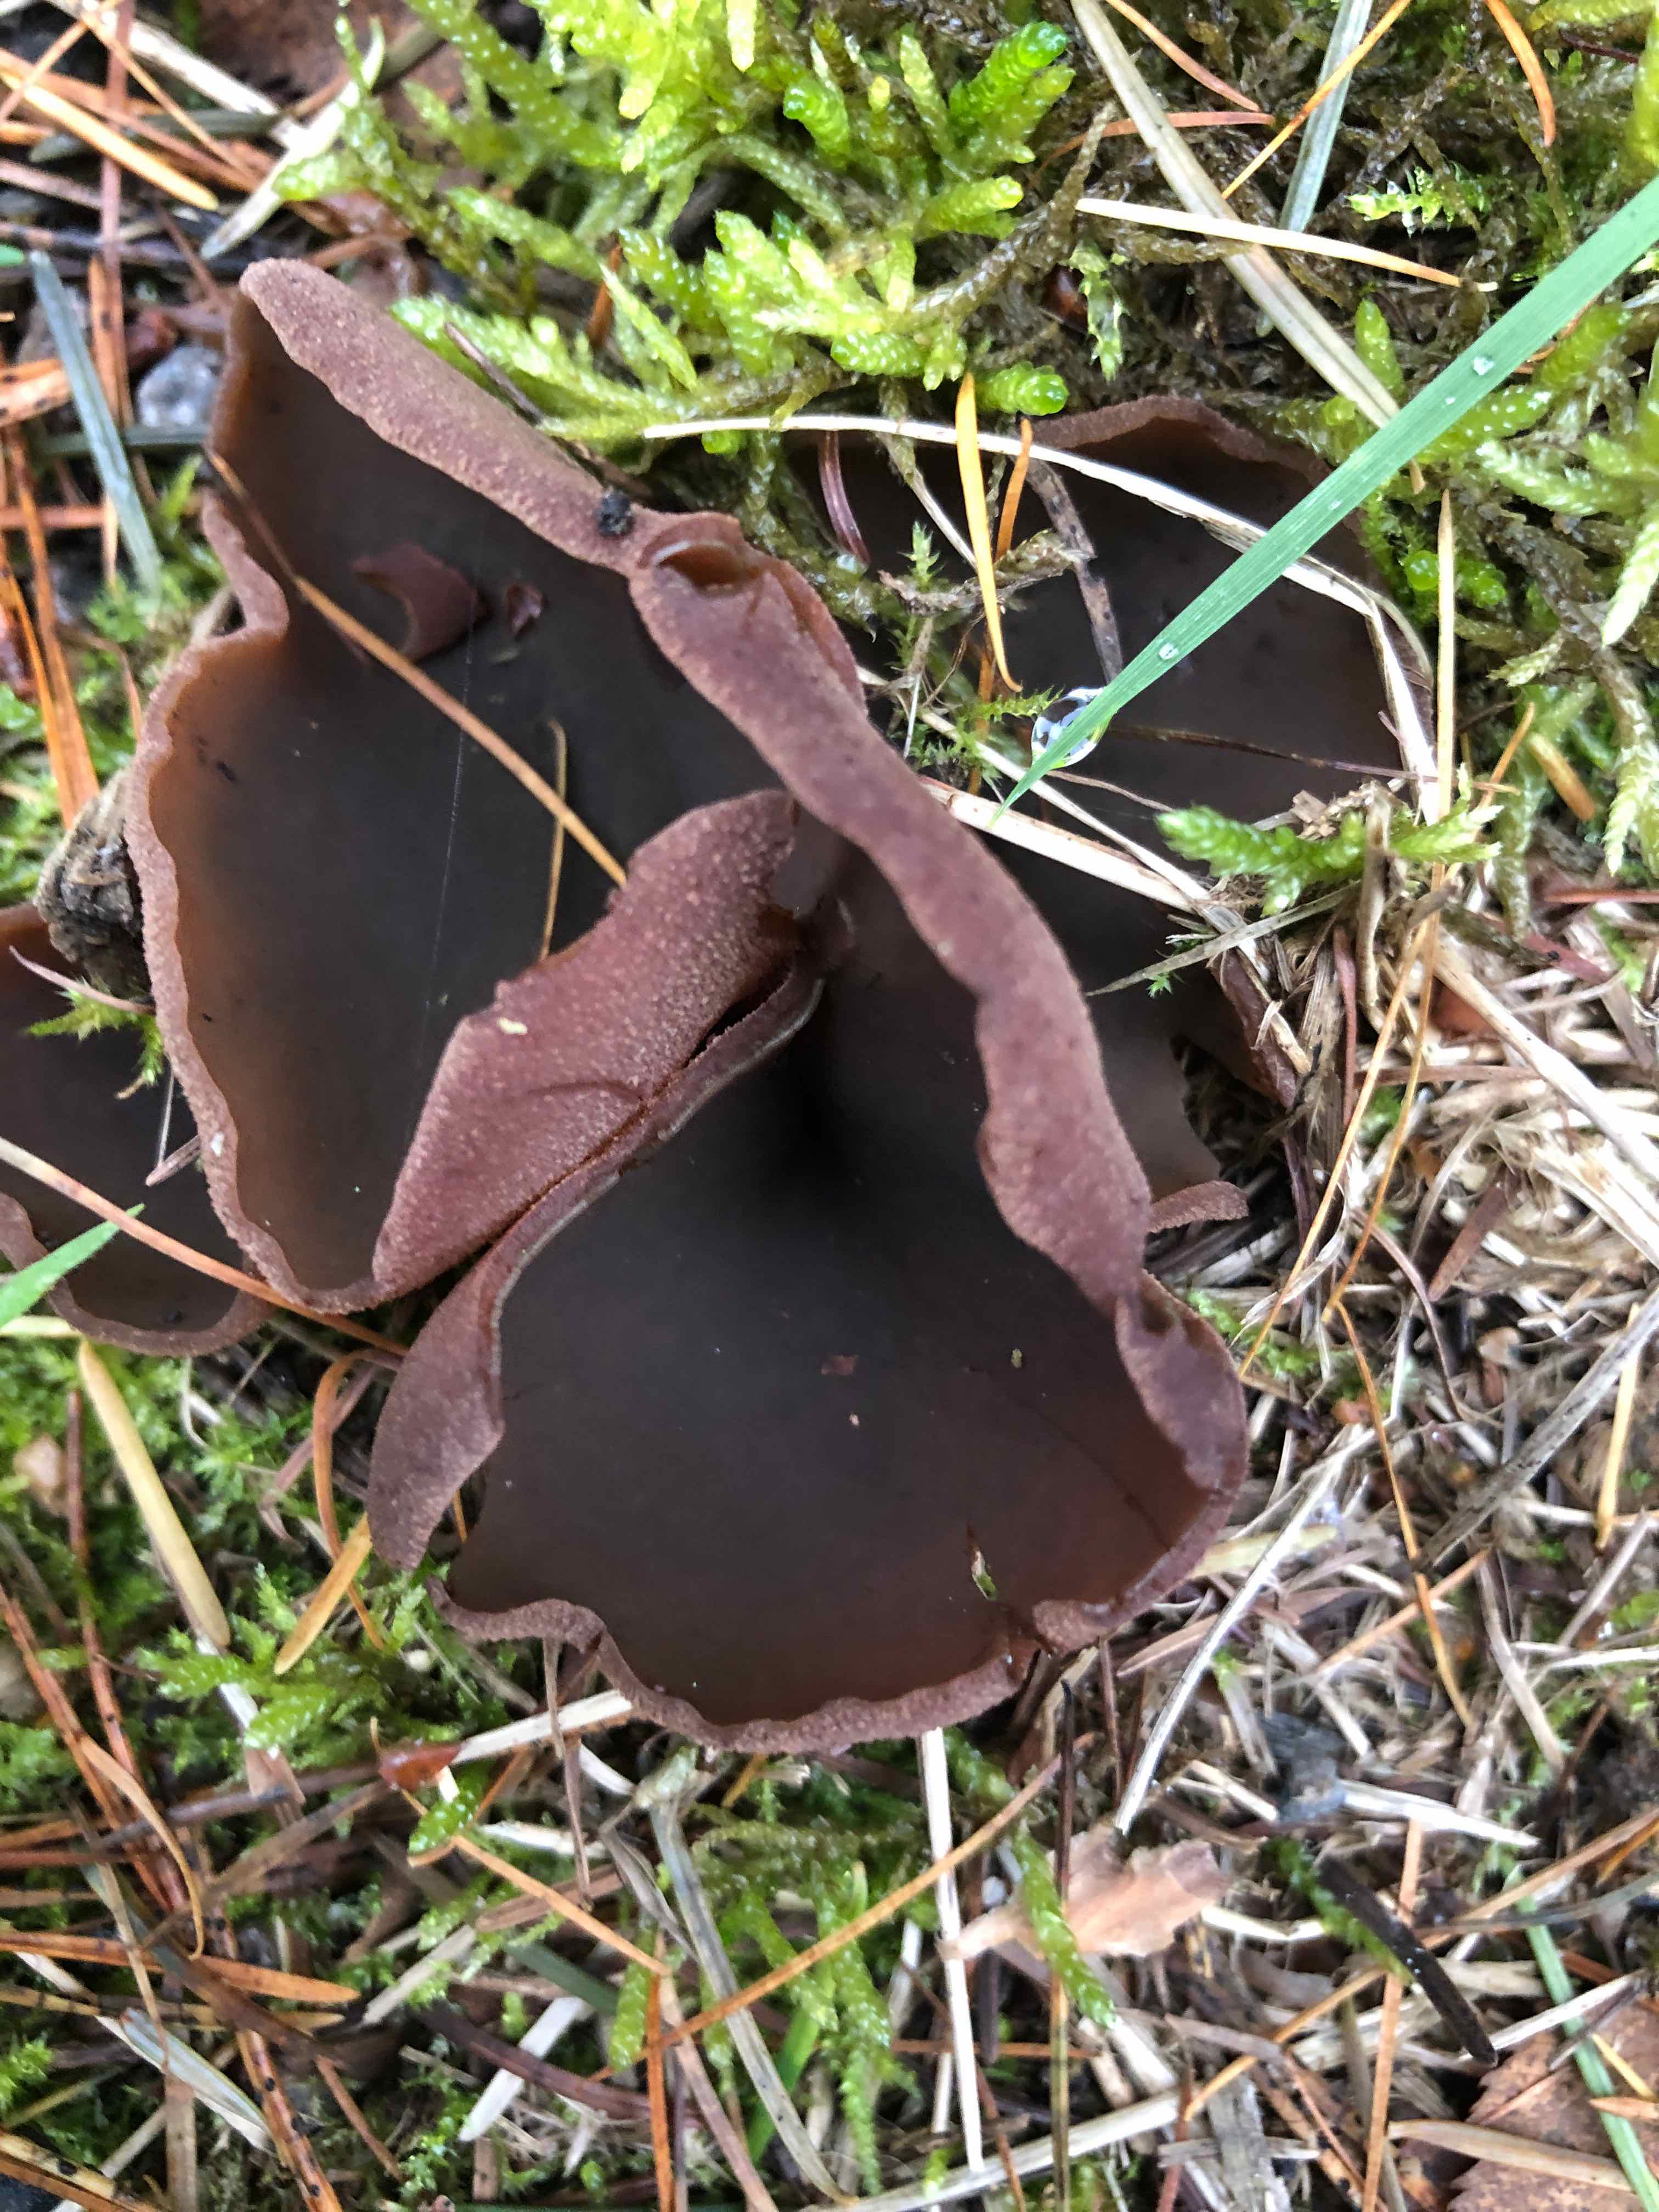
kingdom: Fungi
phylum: Ascomycota
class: Pezizomycetes
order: Pezizales
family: Otideaceae
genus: Otidea
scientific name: Otidea bufonia
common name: brun ørebæger
